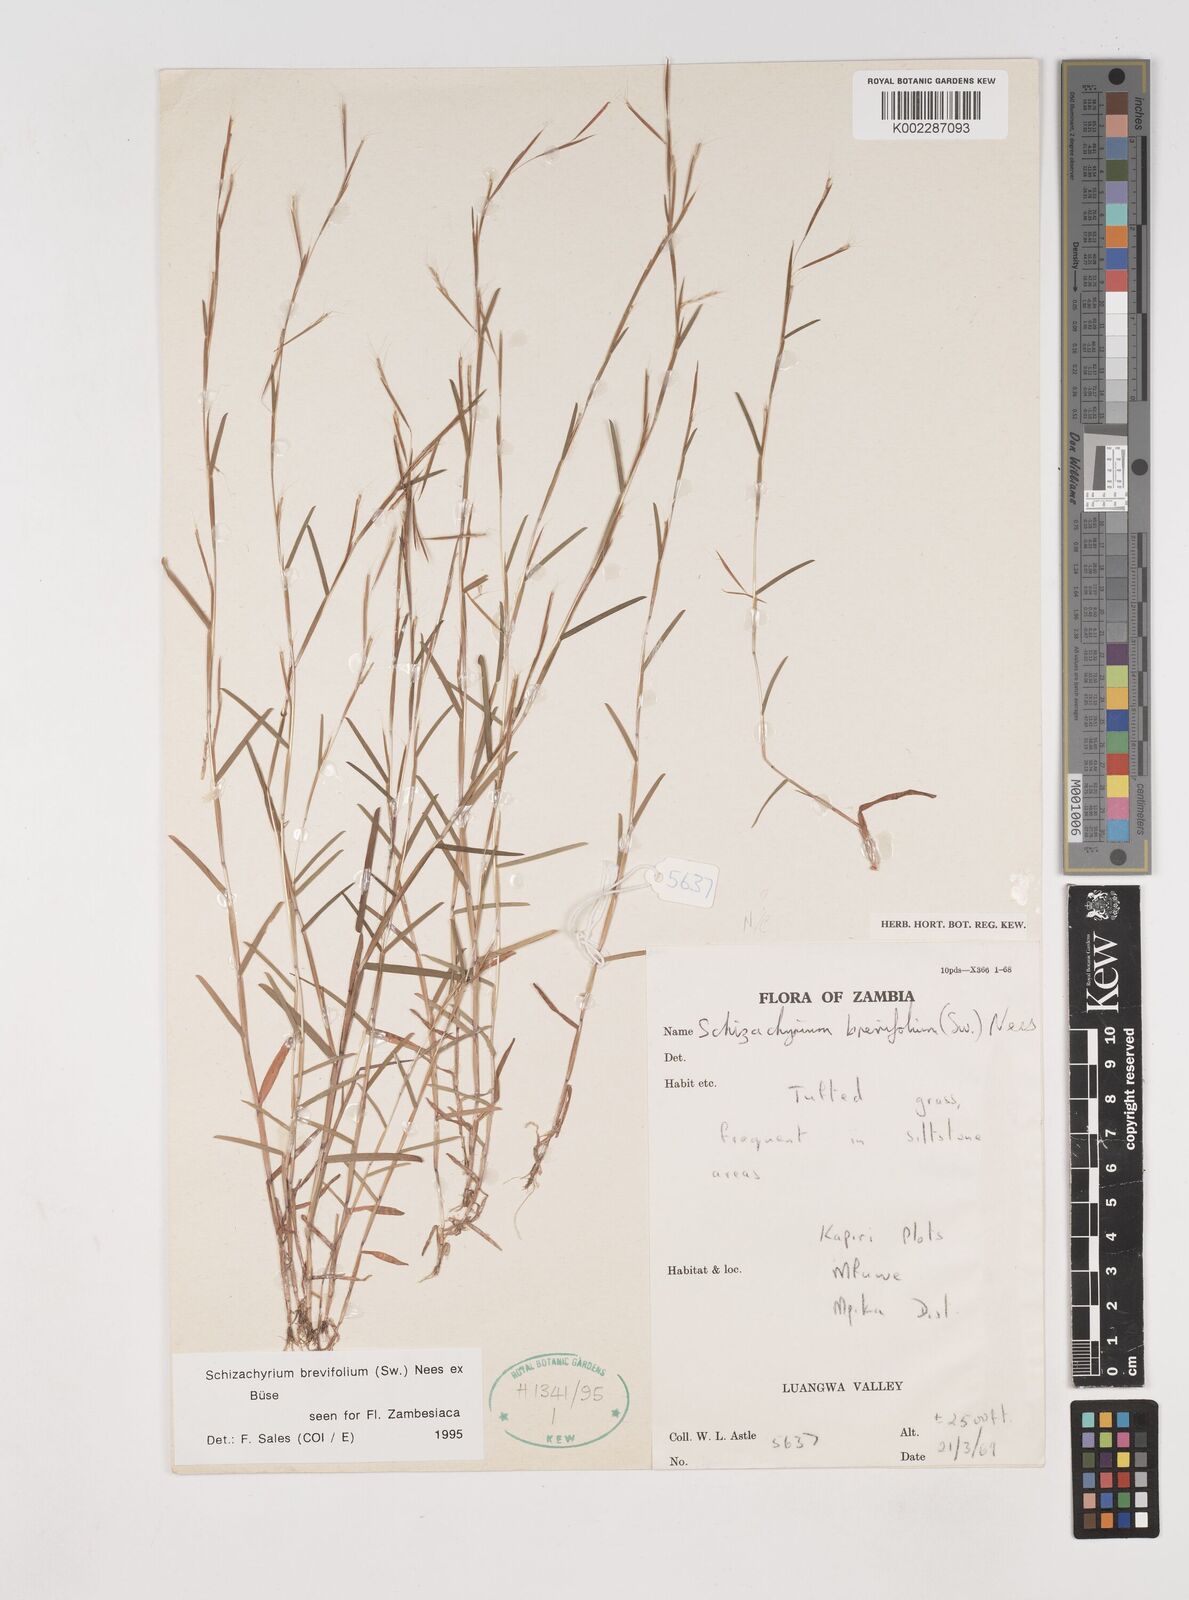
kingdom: Plantae
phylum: Tracheophyta
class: Liliopsida
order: Poales
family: Poaceae
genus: Schizachyrium
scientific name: Schizachyrium brevifolium
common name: Serillo dulce
